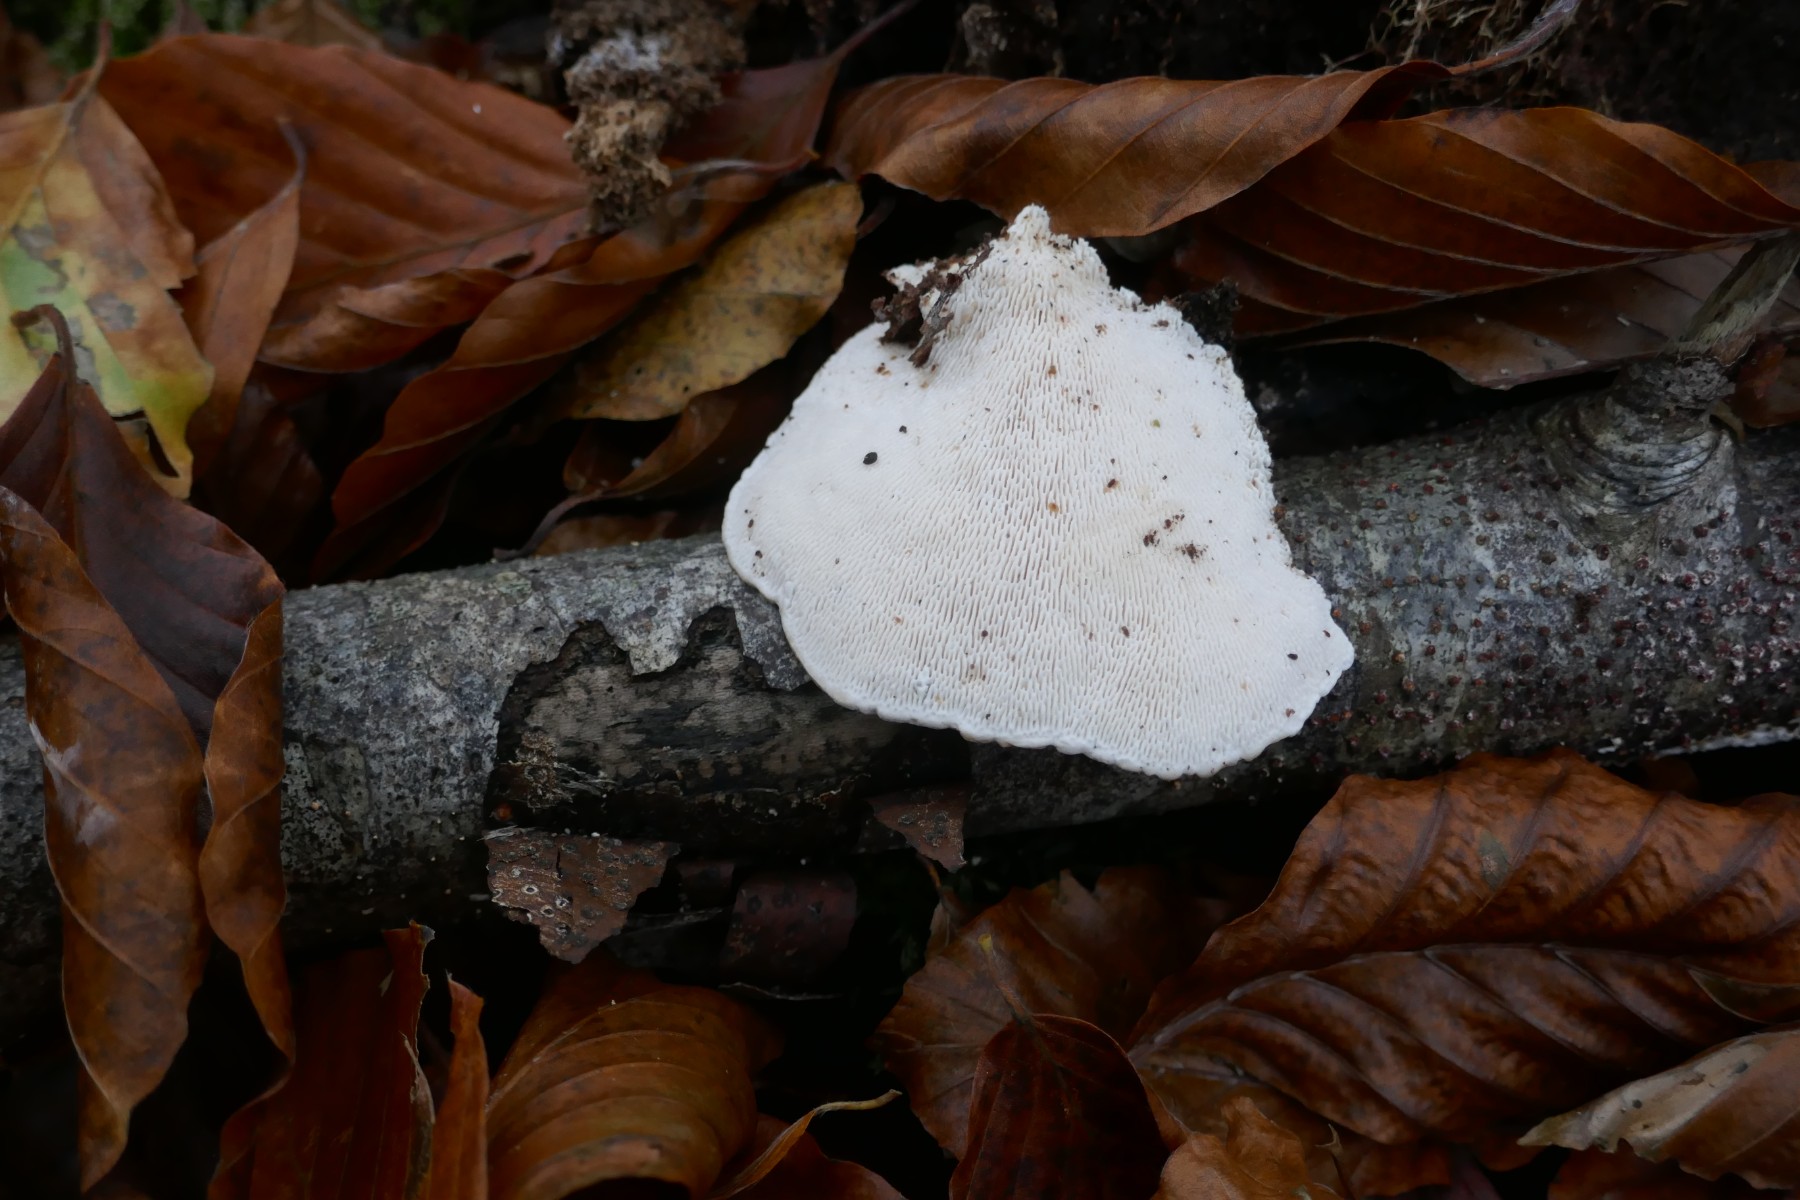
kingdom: Fungi
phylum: Basidiomycota
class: Agaricomycetes
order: Polyporales
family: Polyporaceae
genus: Trametes
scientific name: Trametes gibbosa
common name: puklet læderporesvamp
